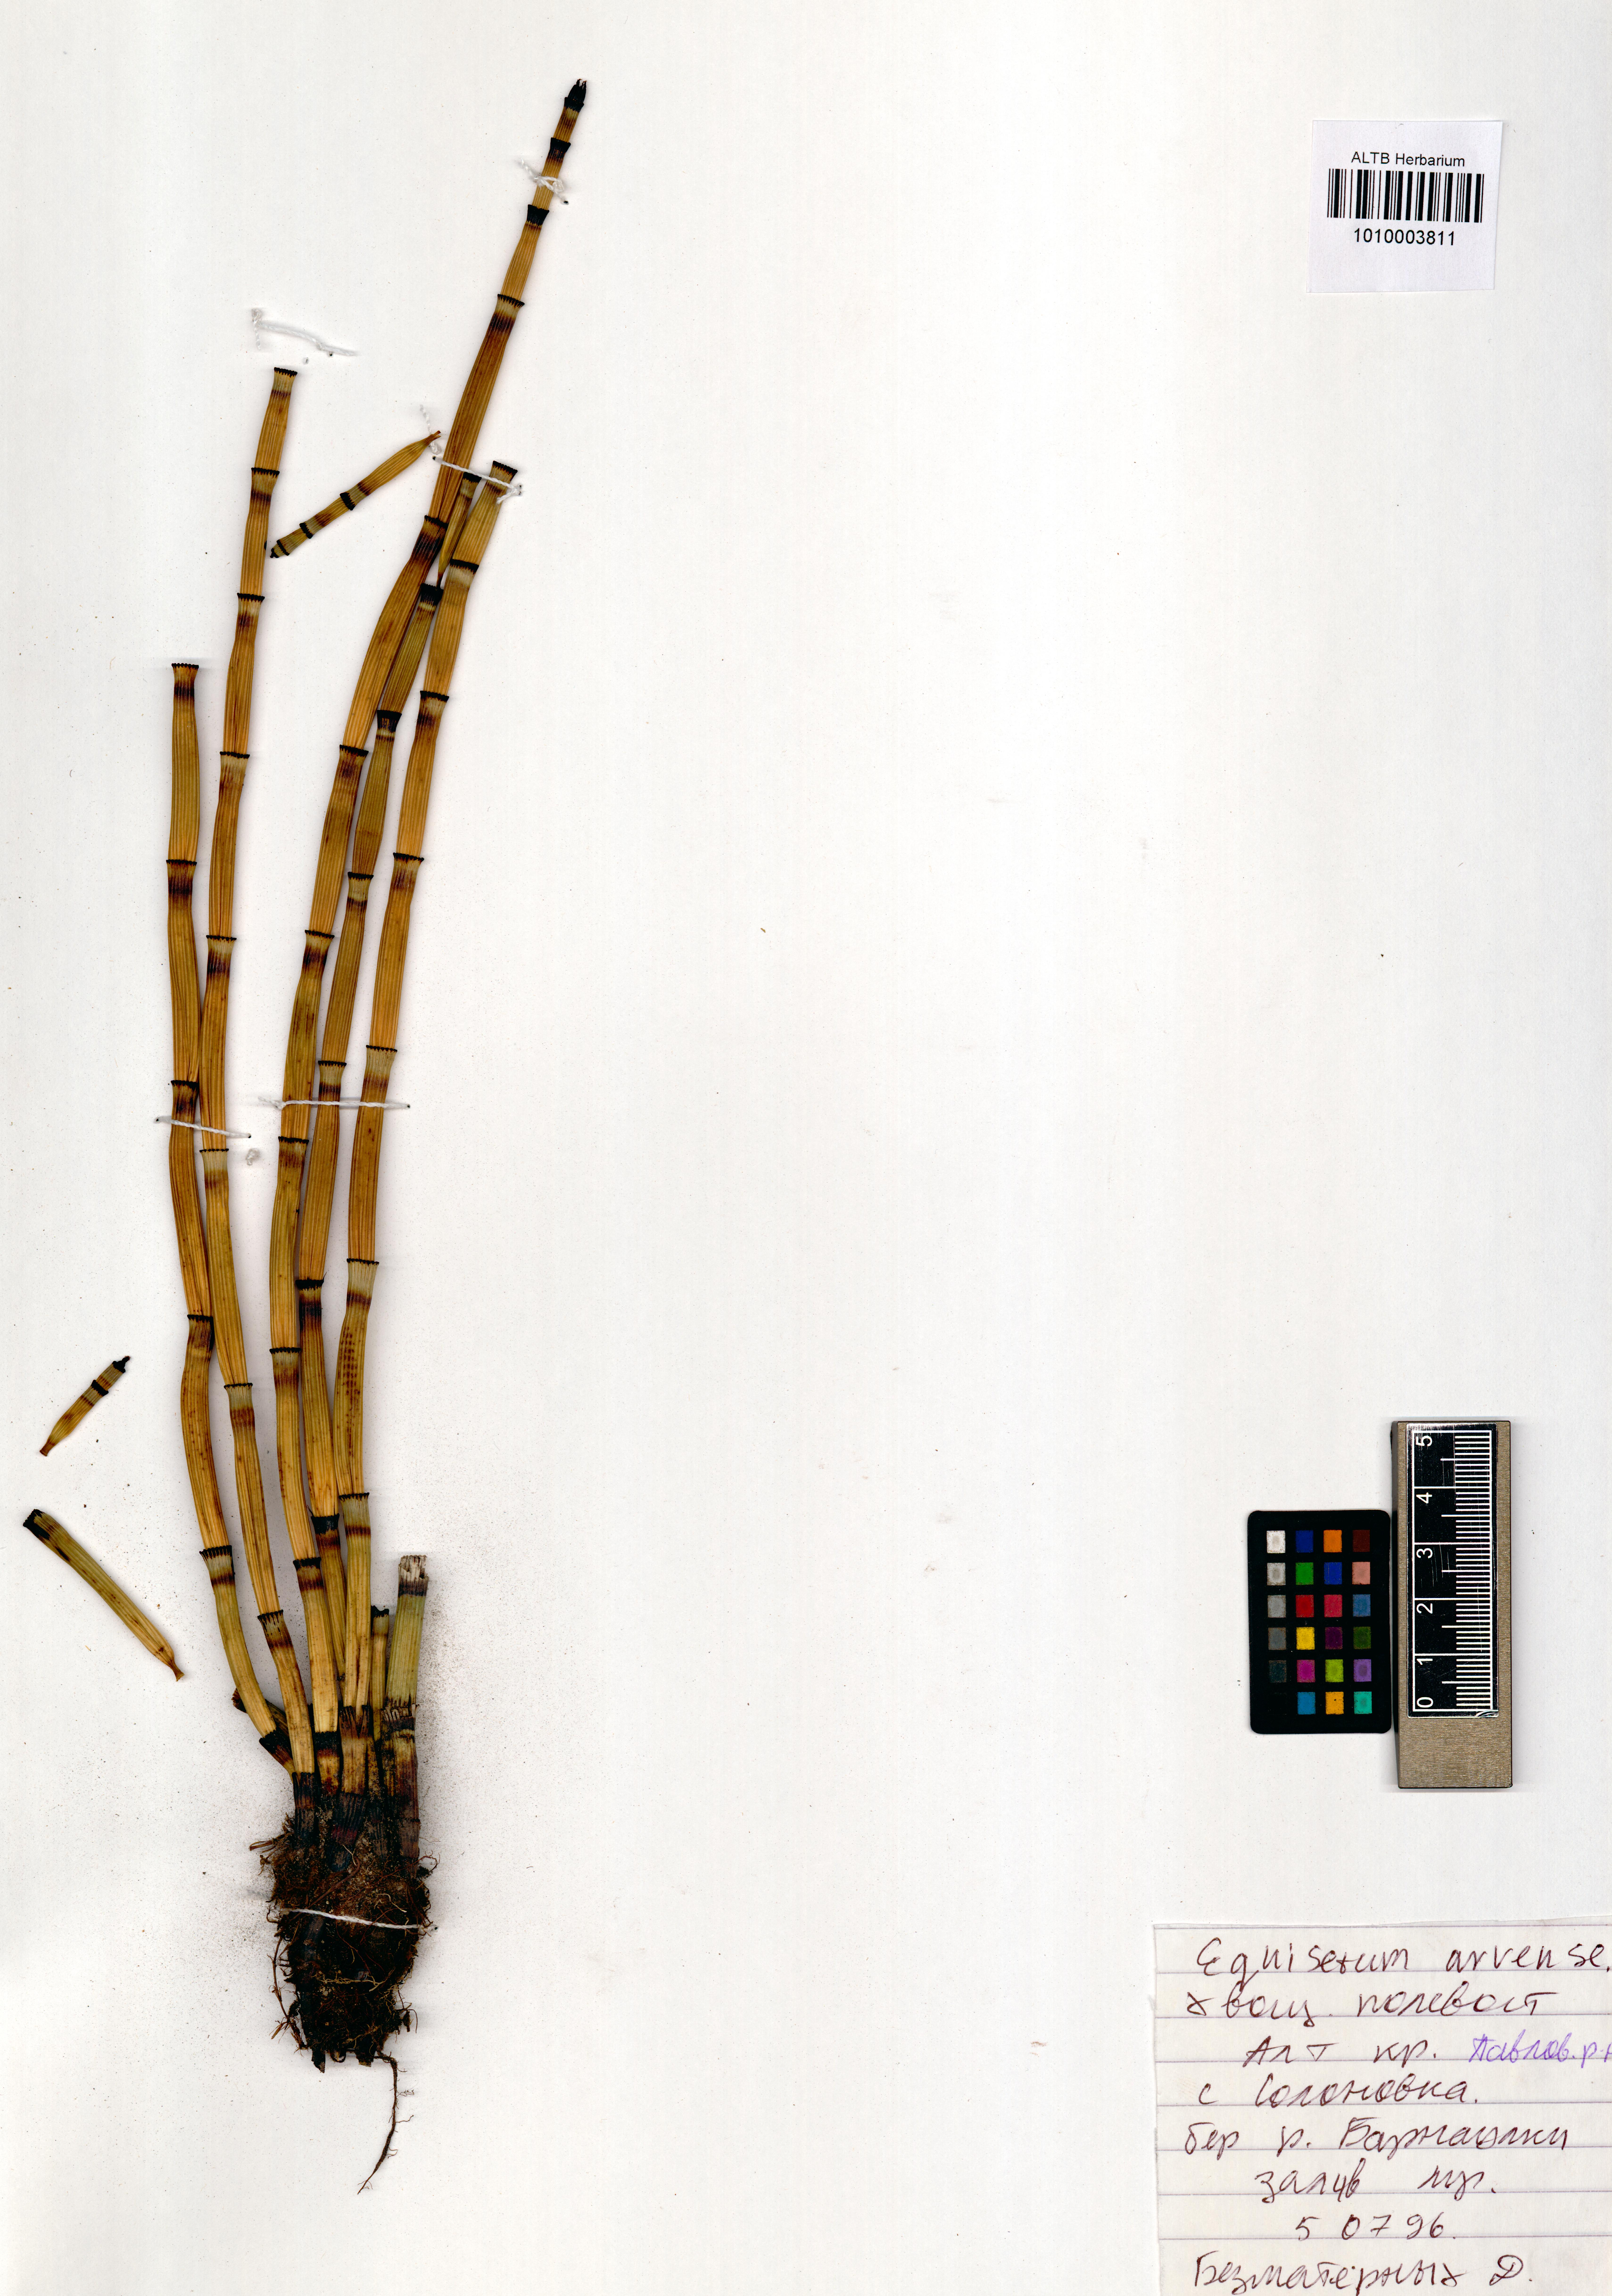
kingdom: Plantae
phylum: Tracheophyta
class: Polypodiopsida
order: Equisetales
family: Equisetaceae
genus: Equisetum
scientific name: Equisetum arvense
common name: Field horsetail
